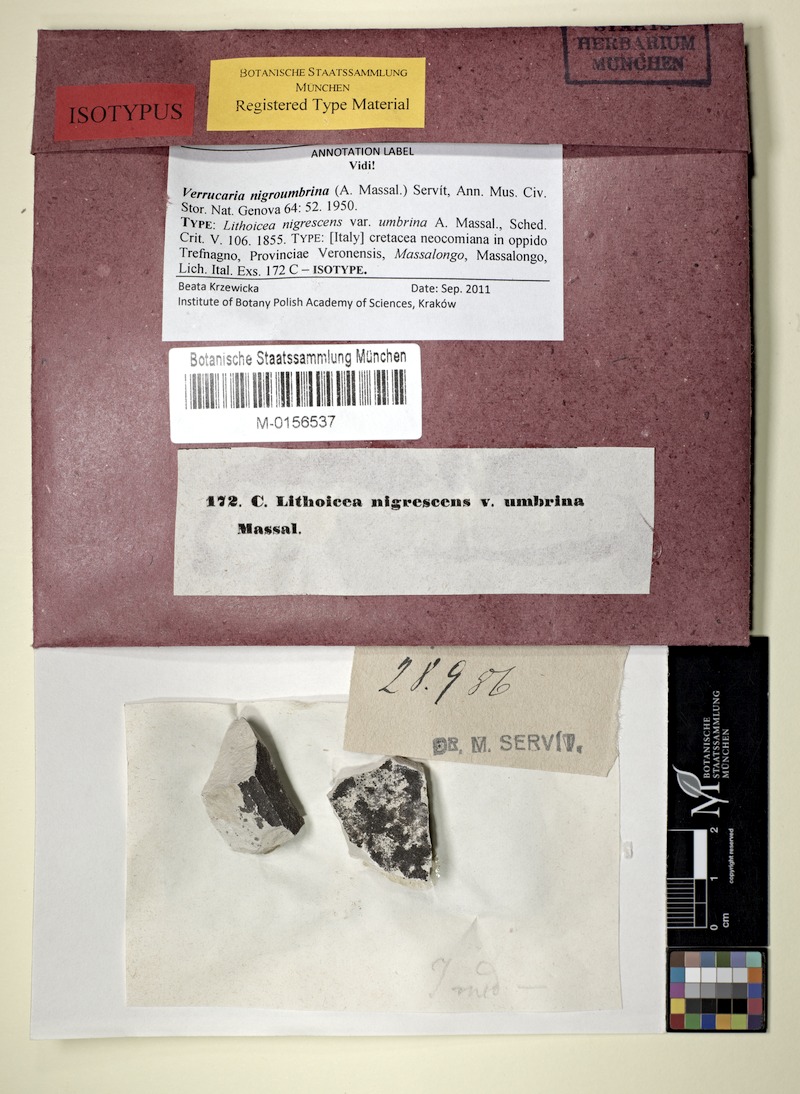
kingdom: Fungi
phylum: Ascomycota
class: Eurotiomycetes
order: Verrucariales
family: Verrucariaceae
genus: Verrucaria
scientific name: Verrucaria nigroumbrina
